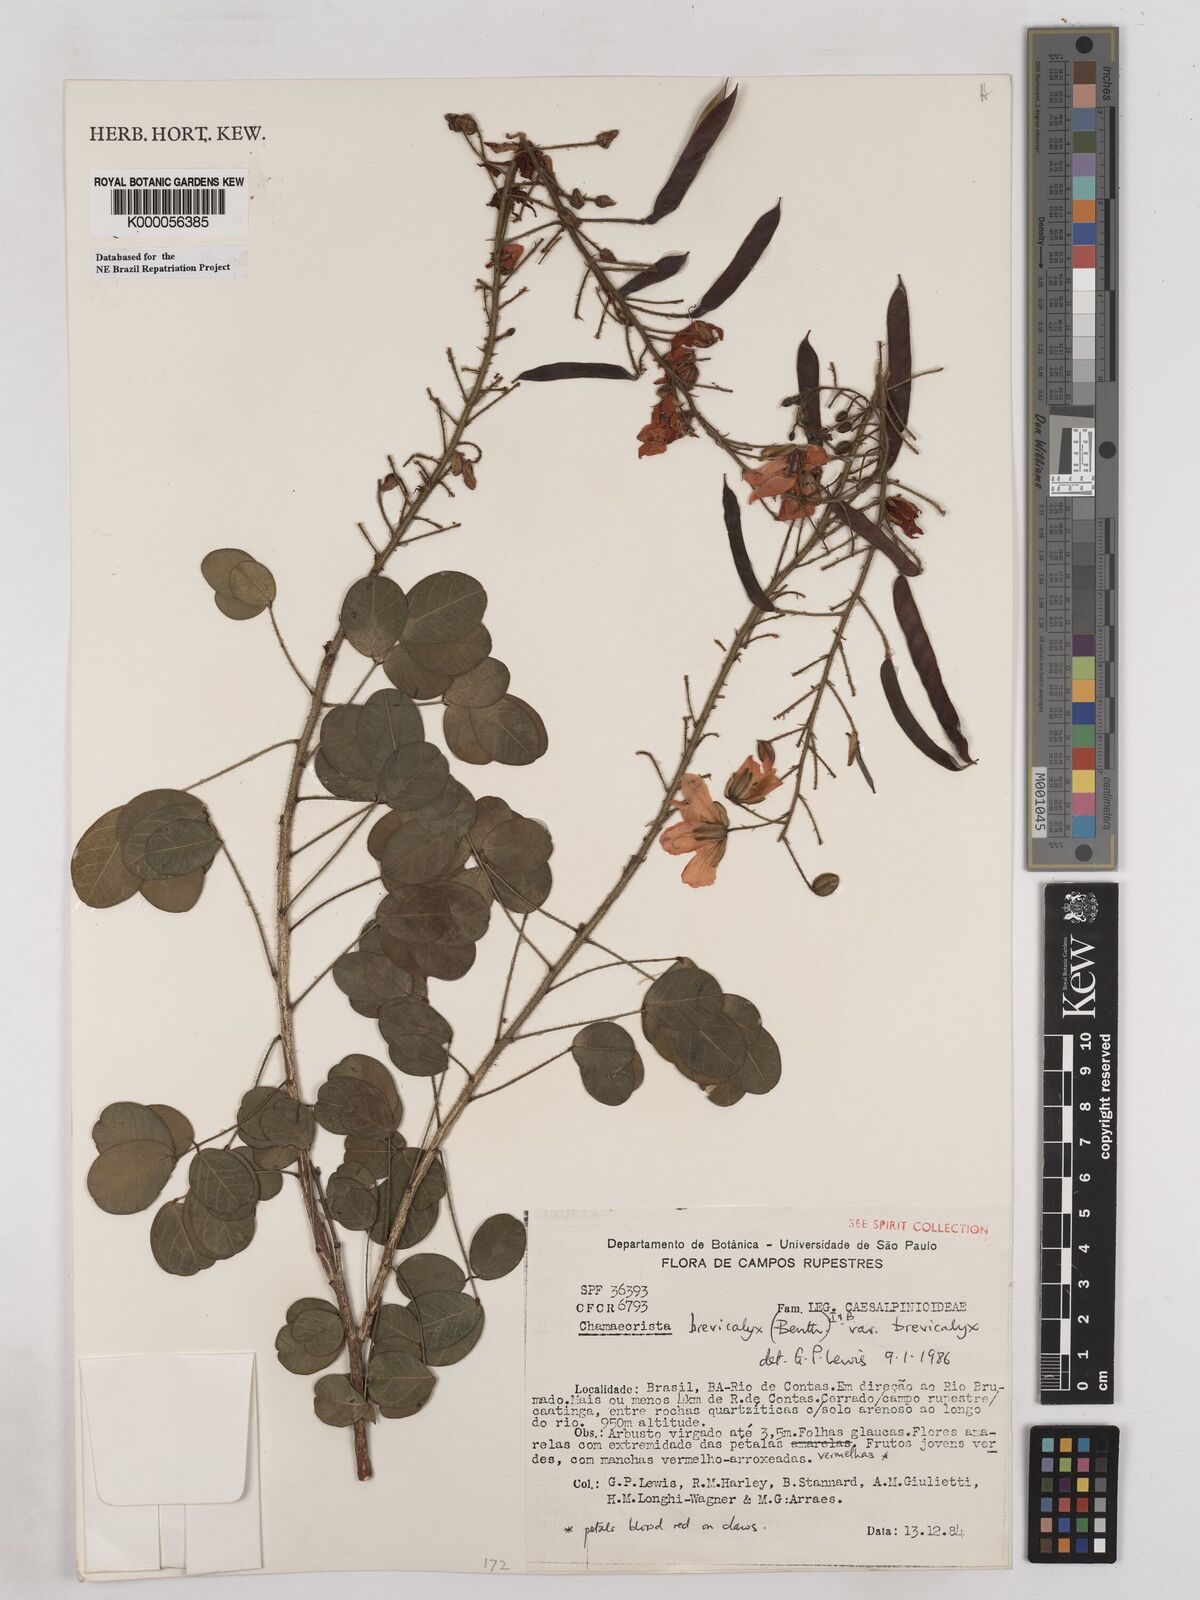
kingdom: Plantae
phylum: Tracheophyta
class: Magnoliopsida
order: Fabales
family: Fabaceae
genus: Chamaecrista
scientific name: Chamaecrista brevicalyx
